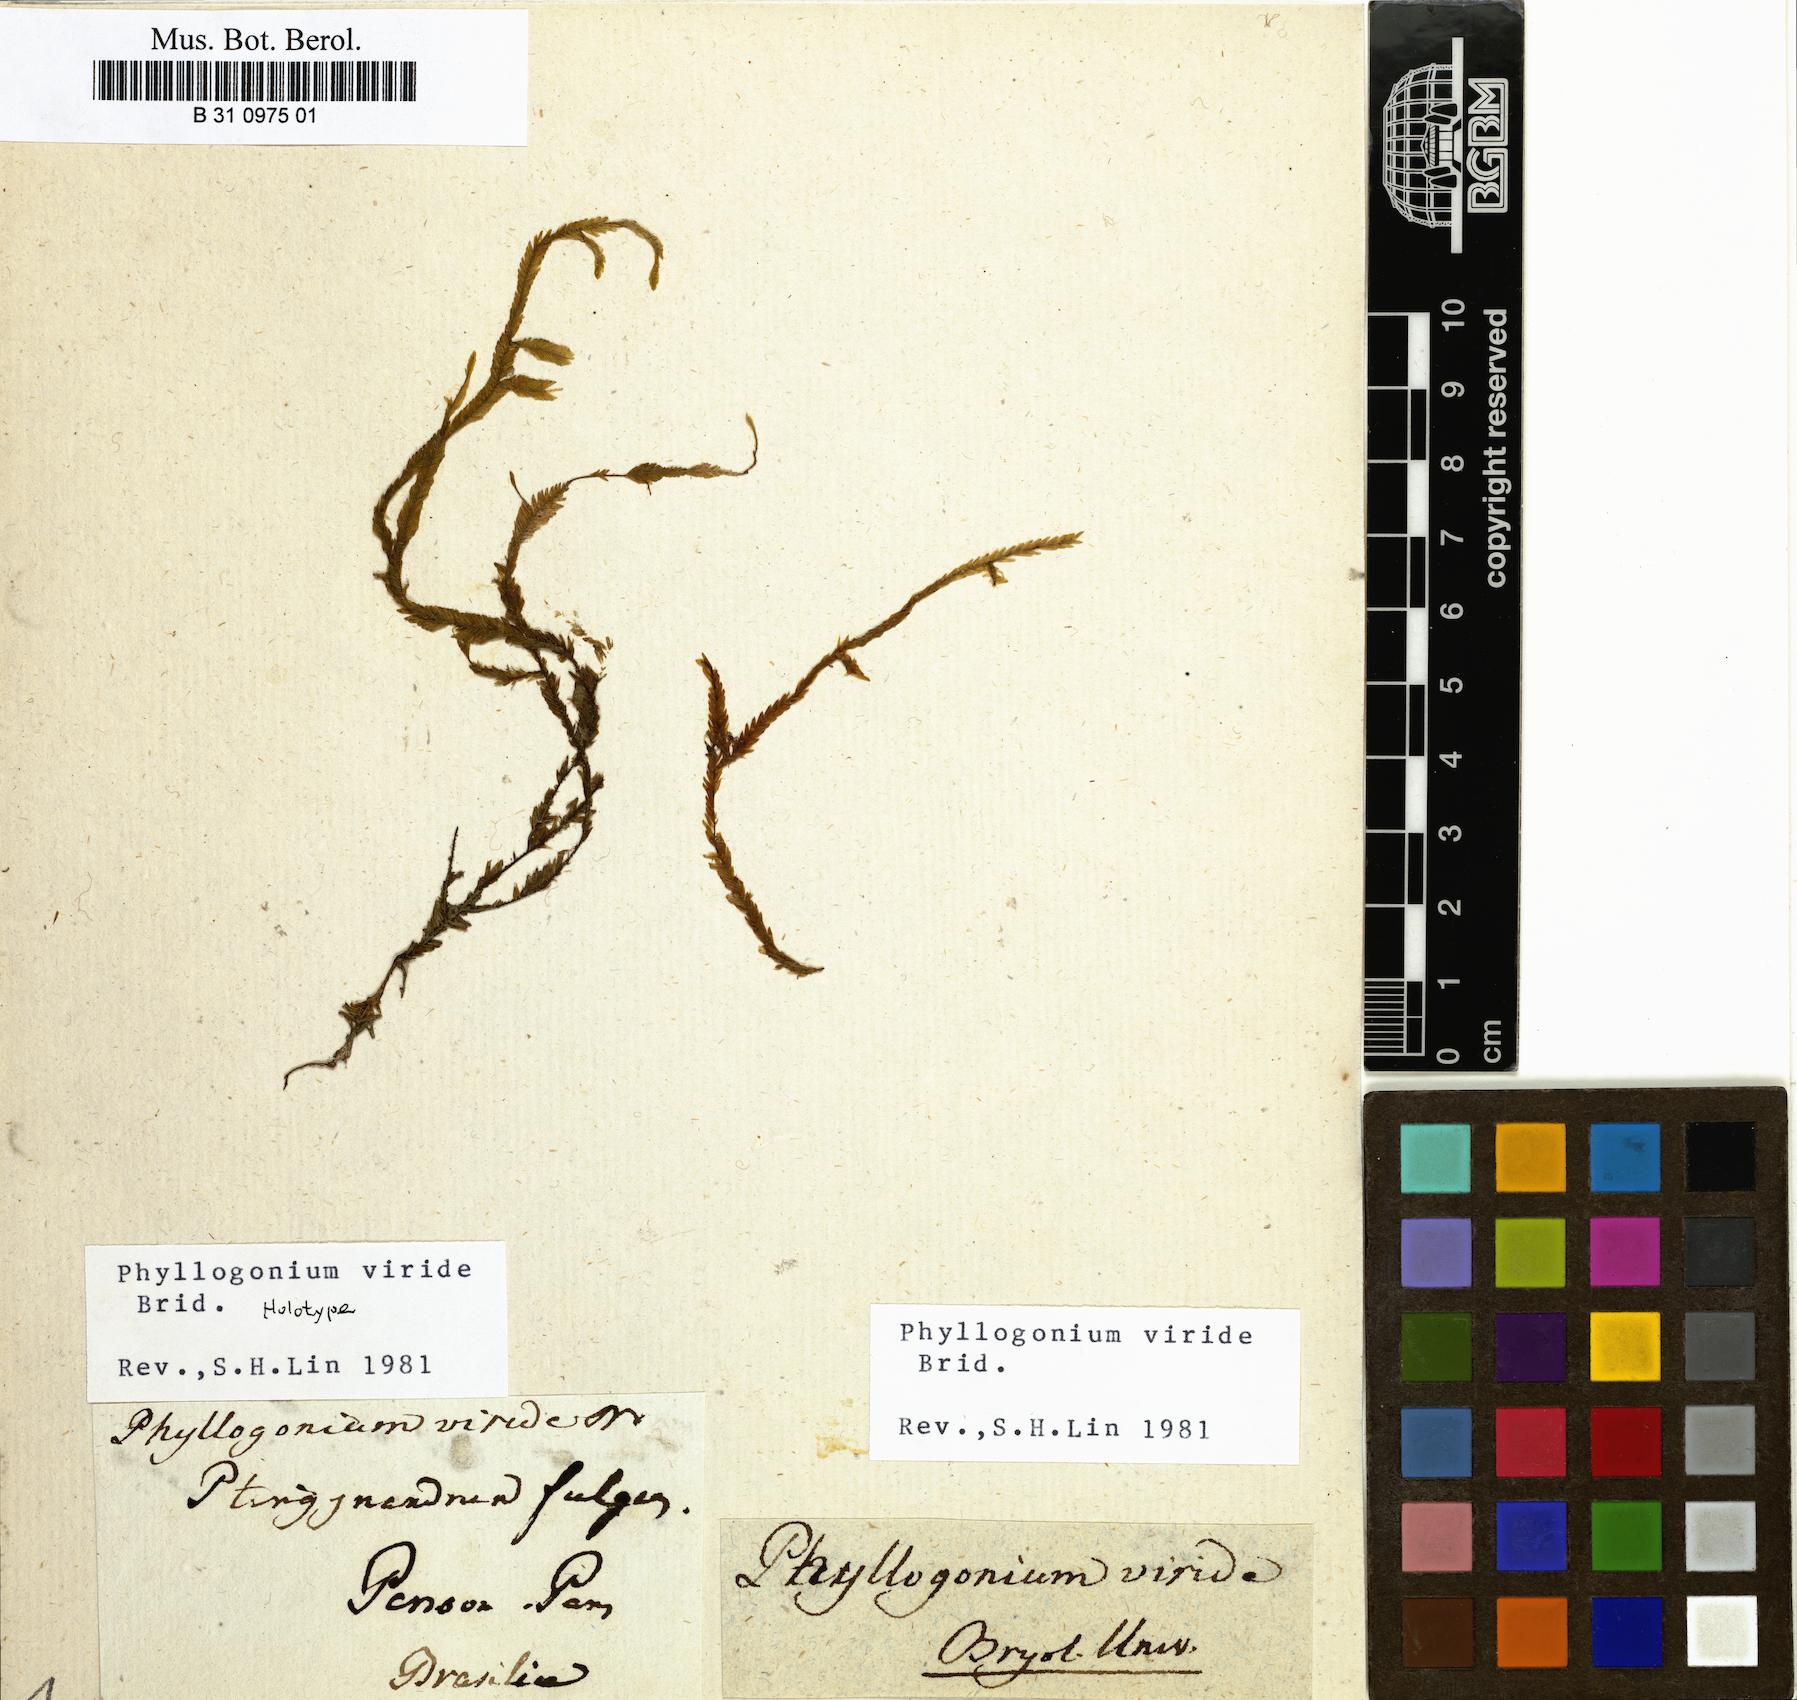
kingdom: Plantae
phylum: Bryophyta
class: Bryopsida
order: Hypnales
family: Phyllogoniaceae
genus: Phyllogonium
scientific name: Phyllogonium viride
